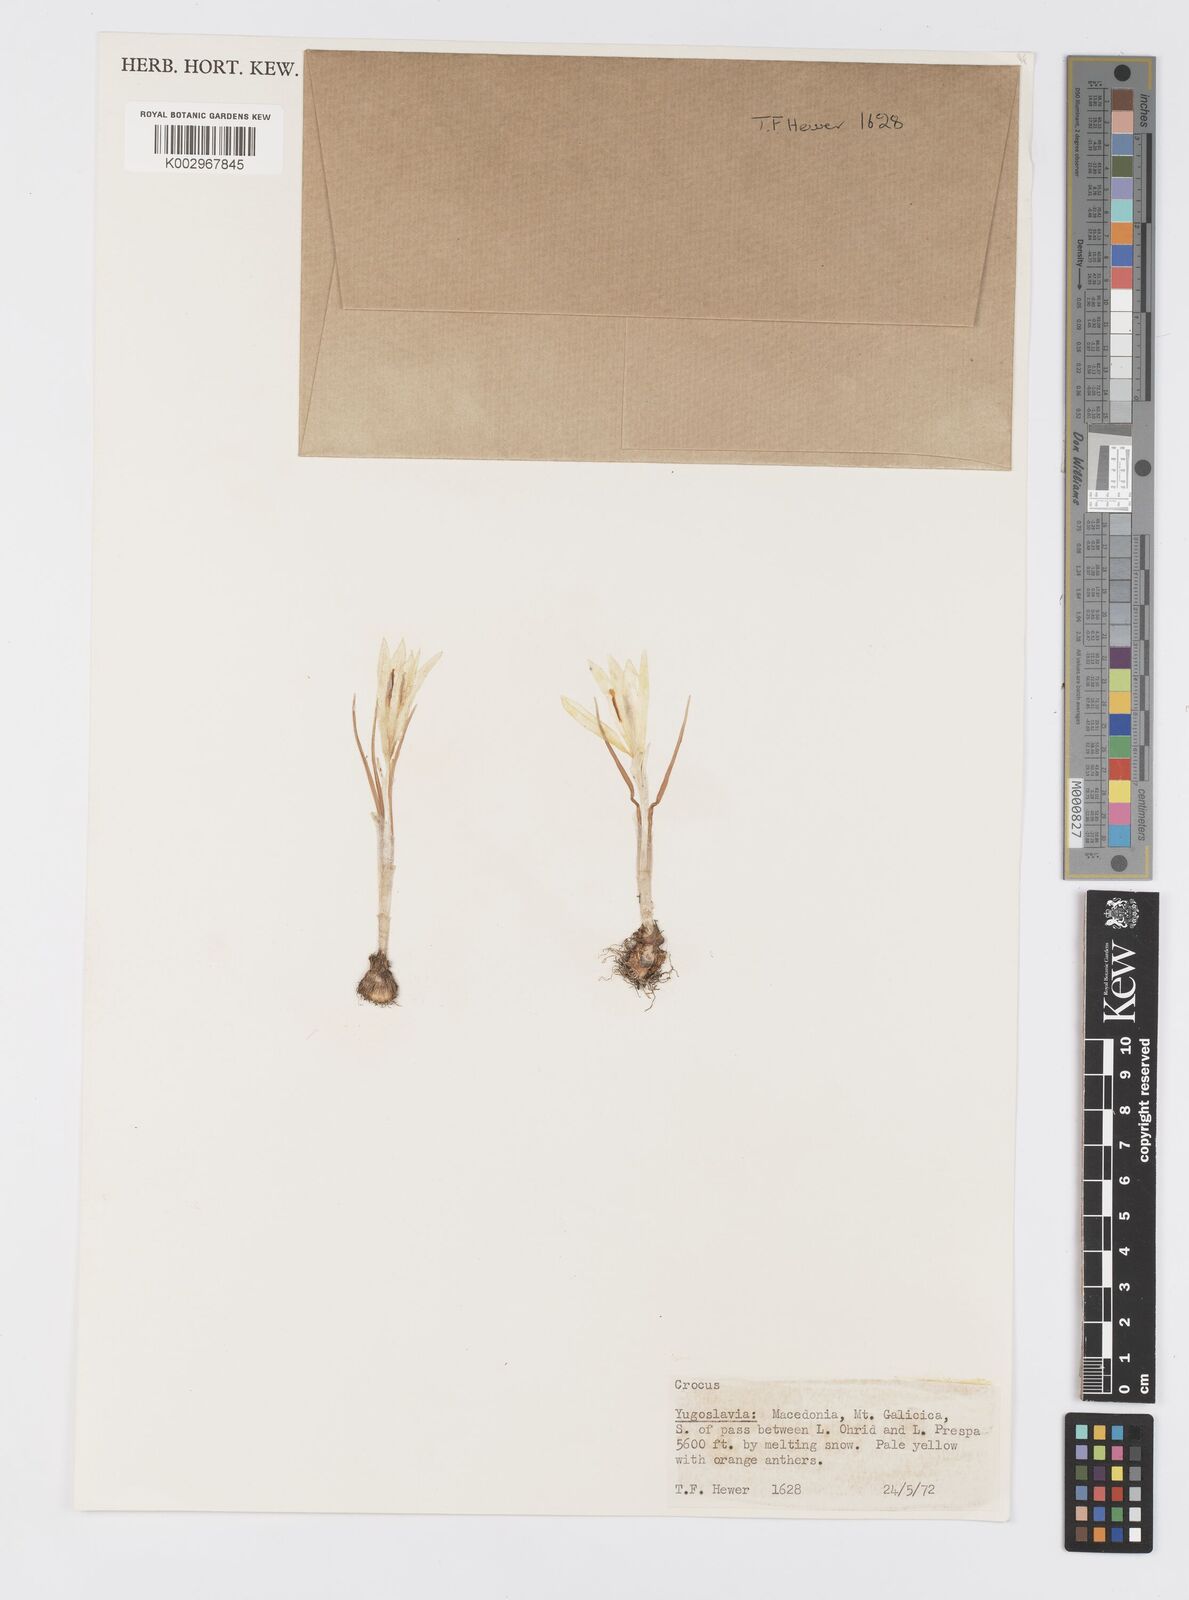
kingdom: Plantae
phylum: Tracheophyta
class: Liliopsida
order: Asparagales
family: Iridaceae
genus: Crocus
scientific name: Crocus cvijicii
